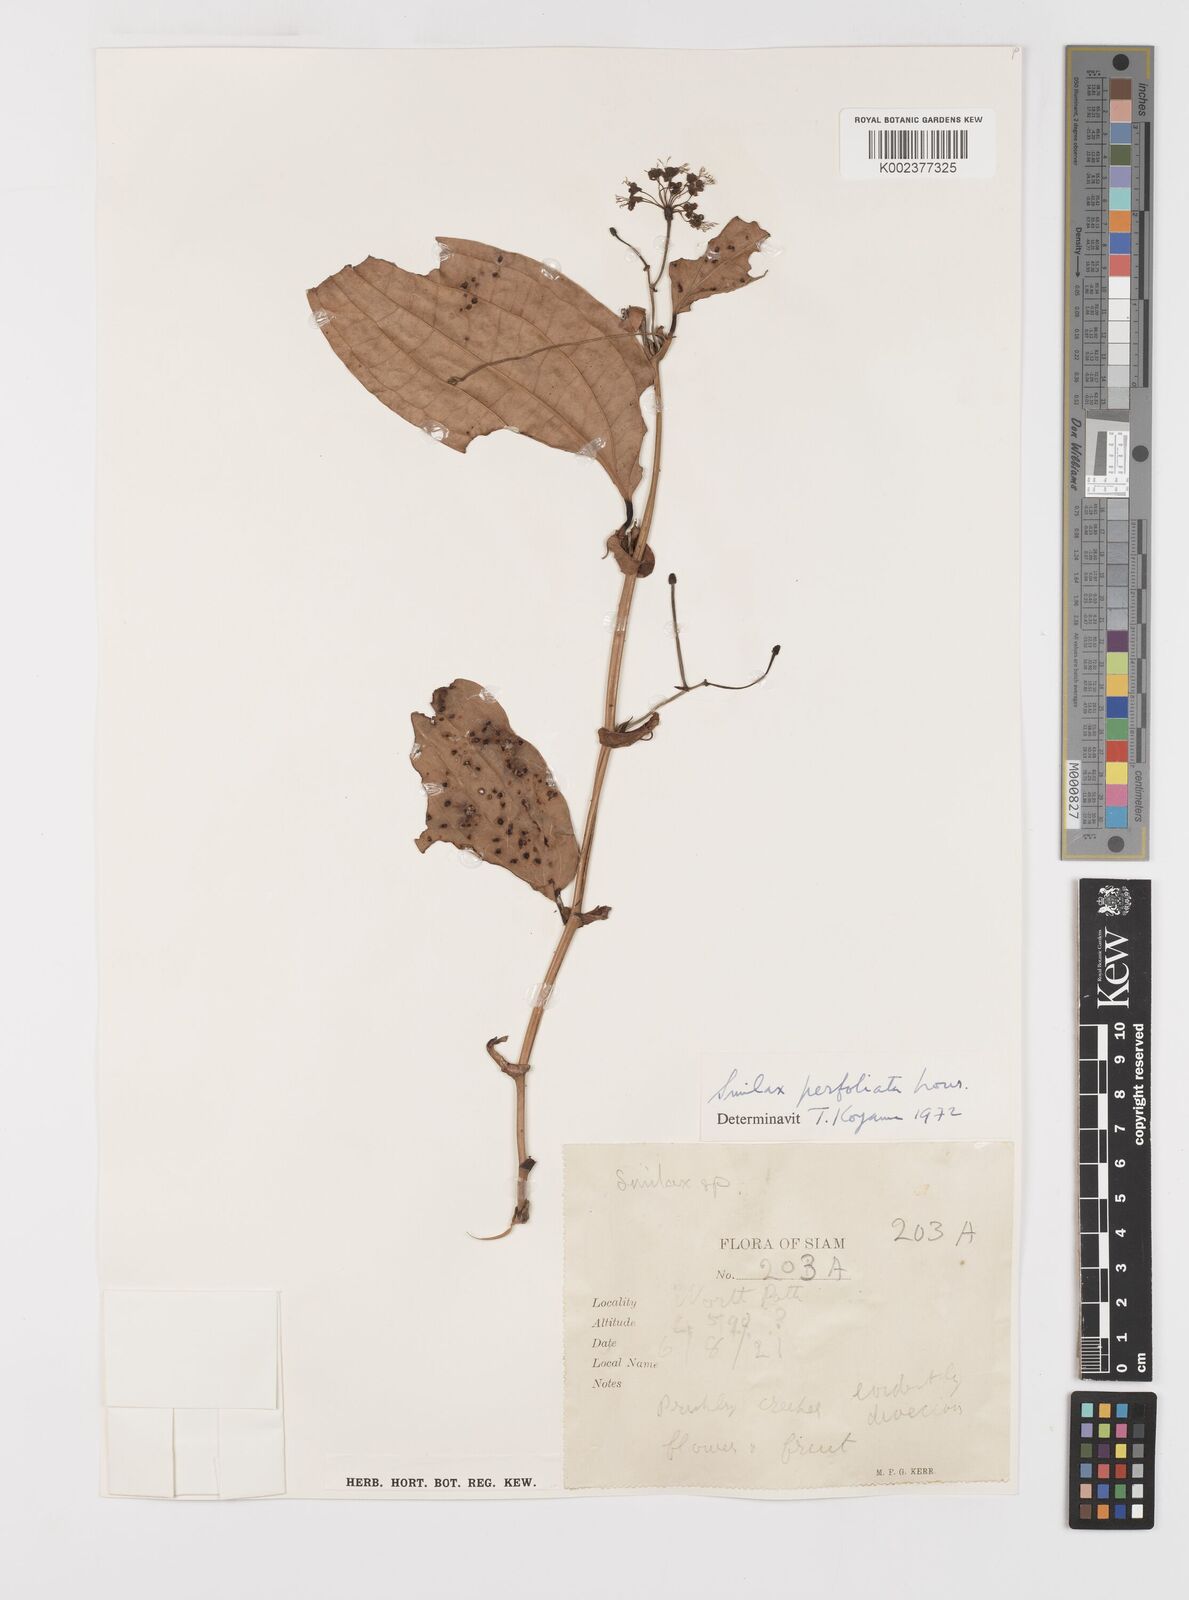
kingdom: Plantae
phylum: Tracheophyta
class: Liliopsida
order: Liliales
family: Smilacaceae
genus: Smilax
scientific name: Smilax perfoliata
